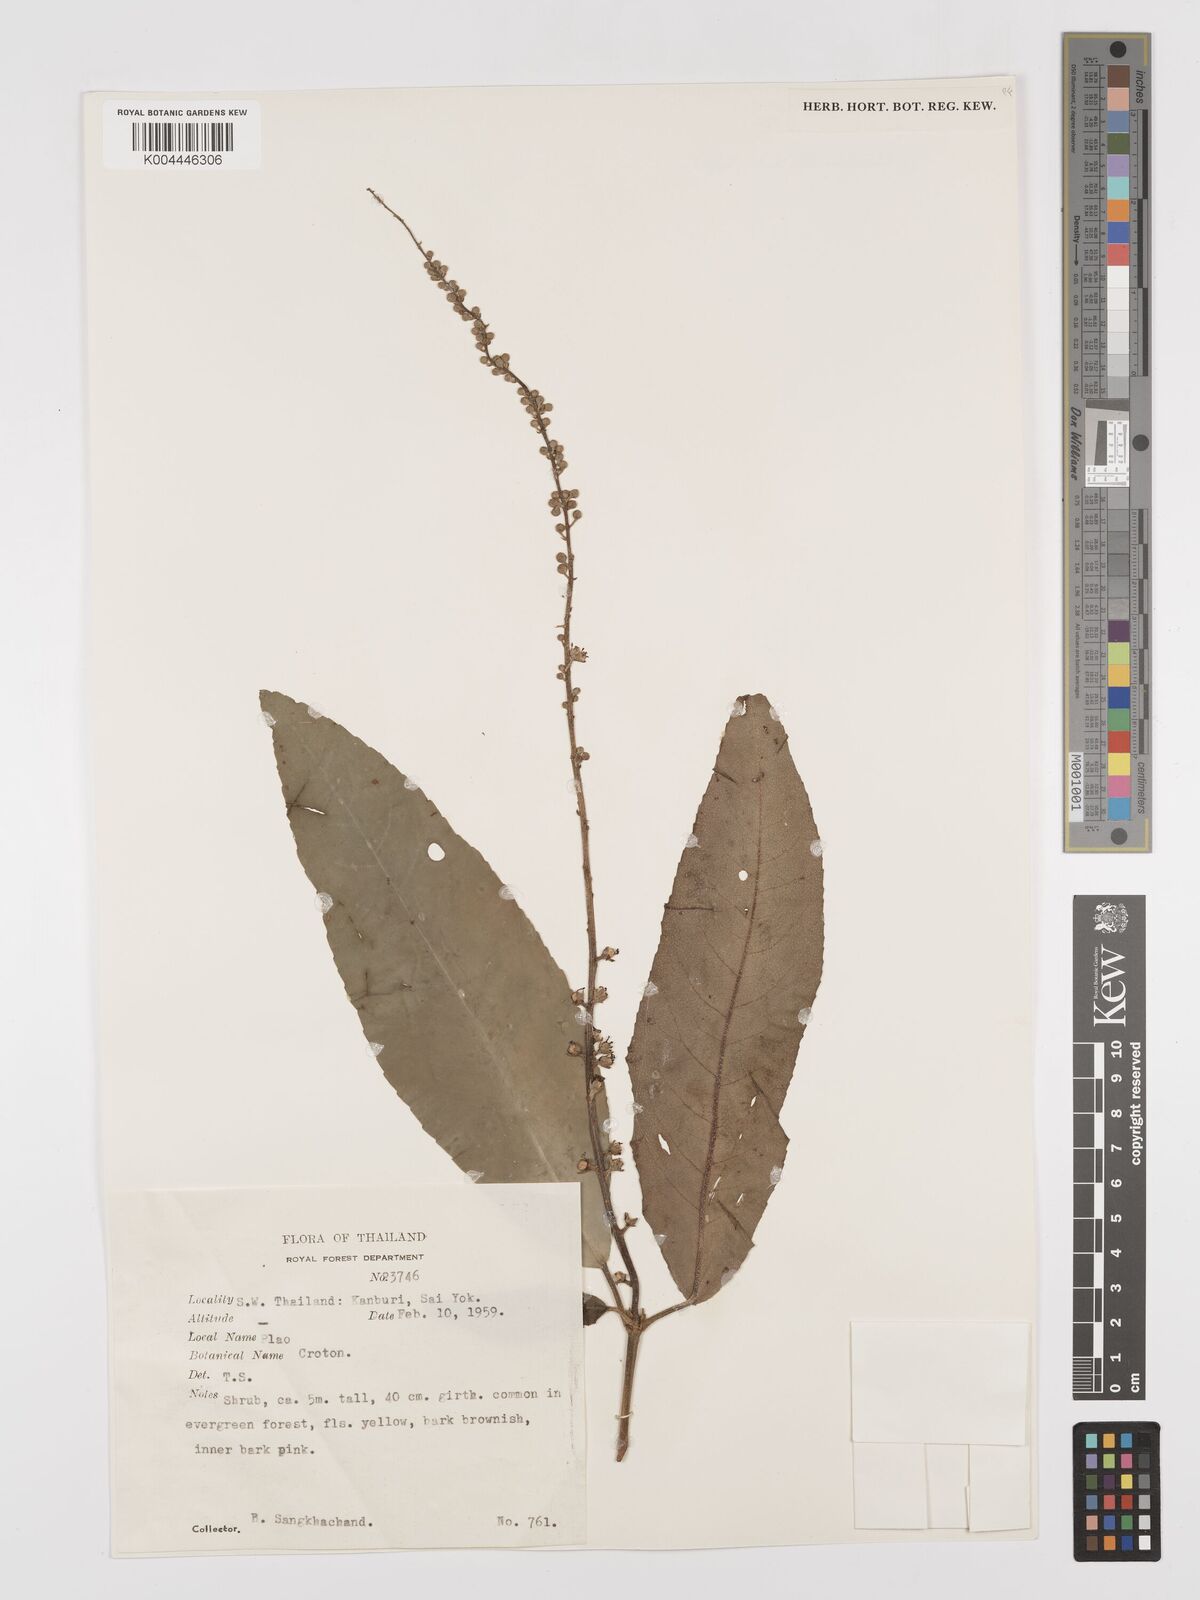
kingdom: Plantae
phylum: Tracheophyta
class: Magnoliopsida
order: Malpighiales
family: Euphorbiaceae
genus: Croton
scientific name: Croton
